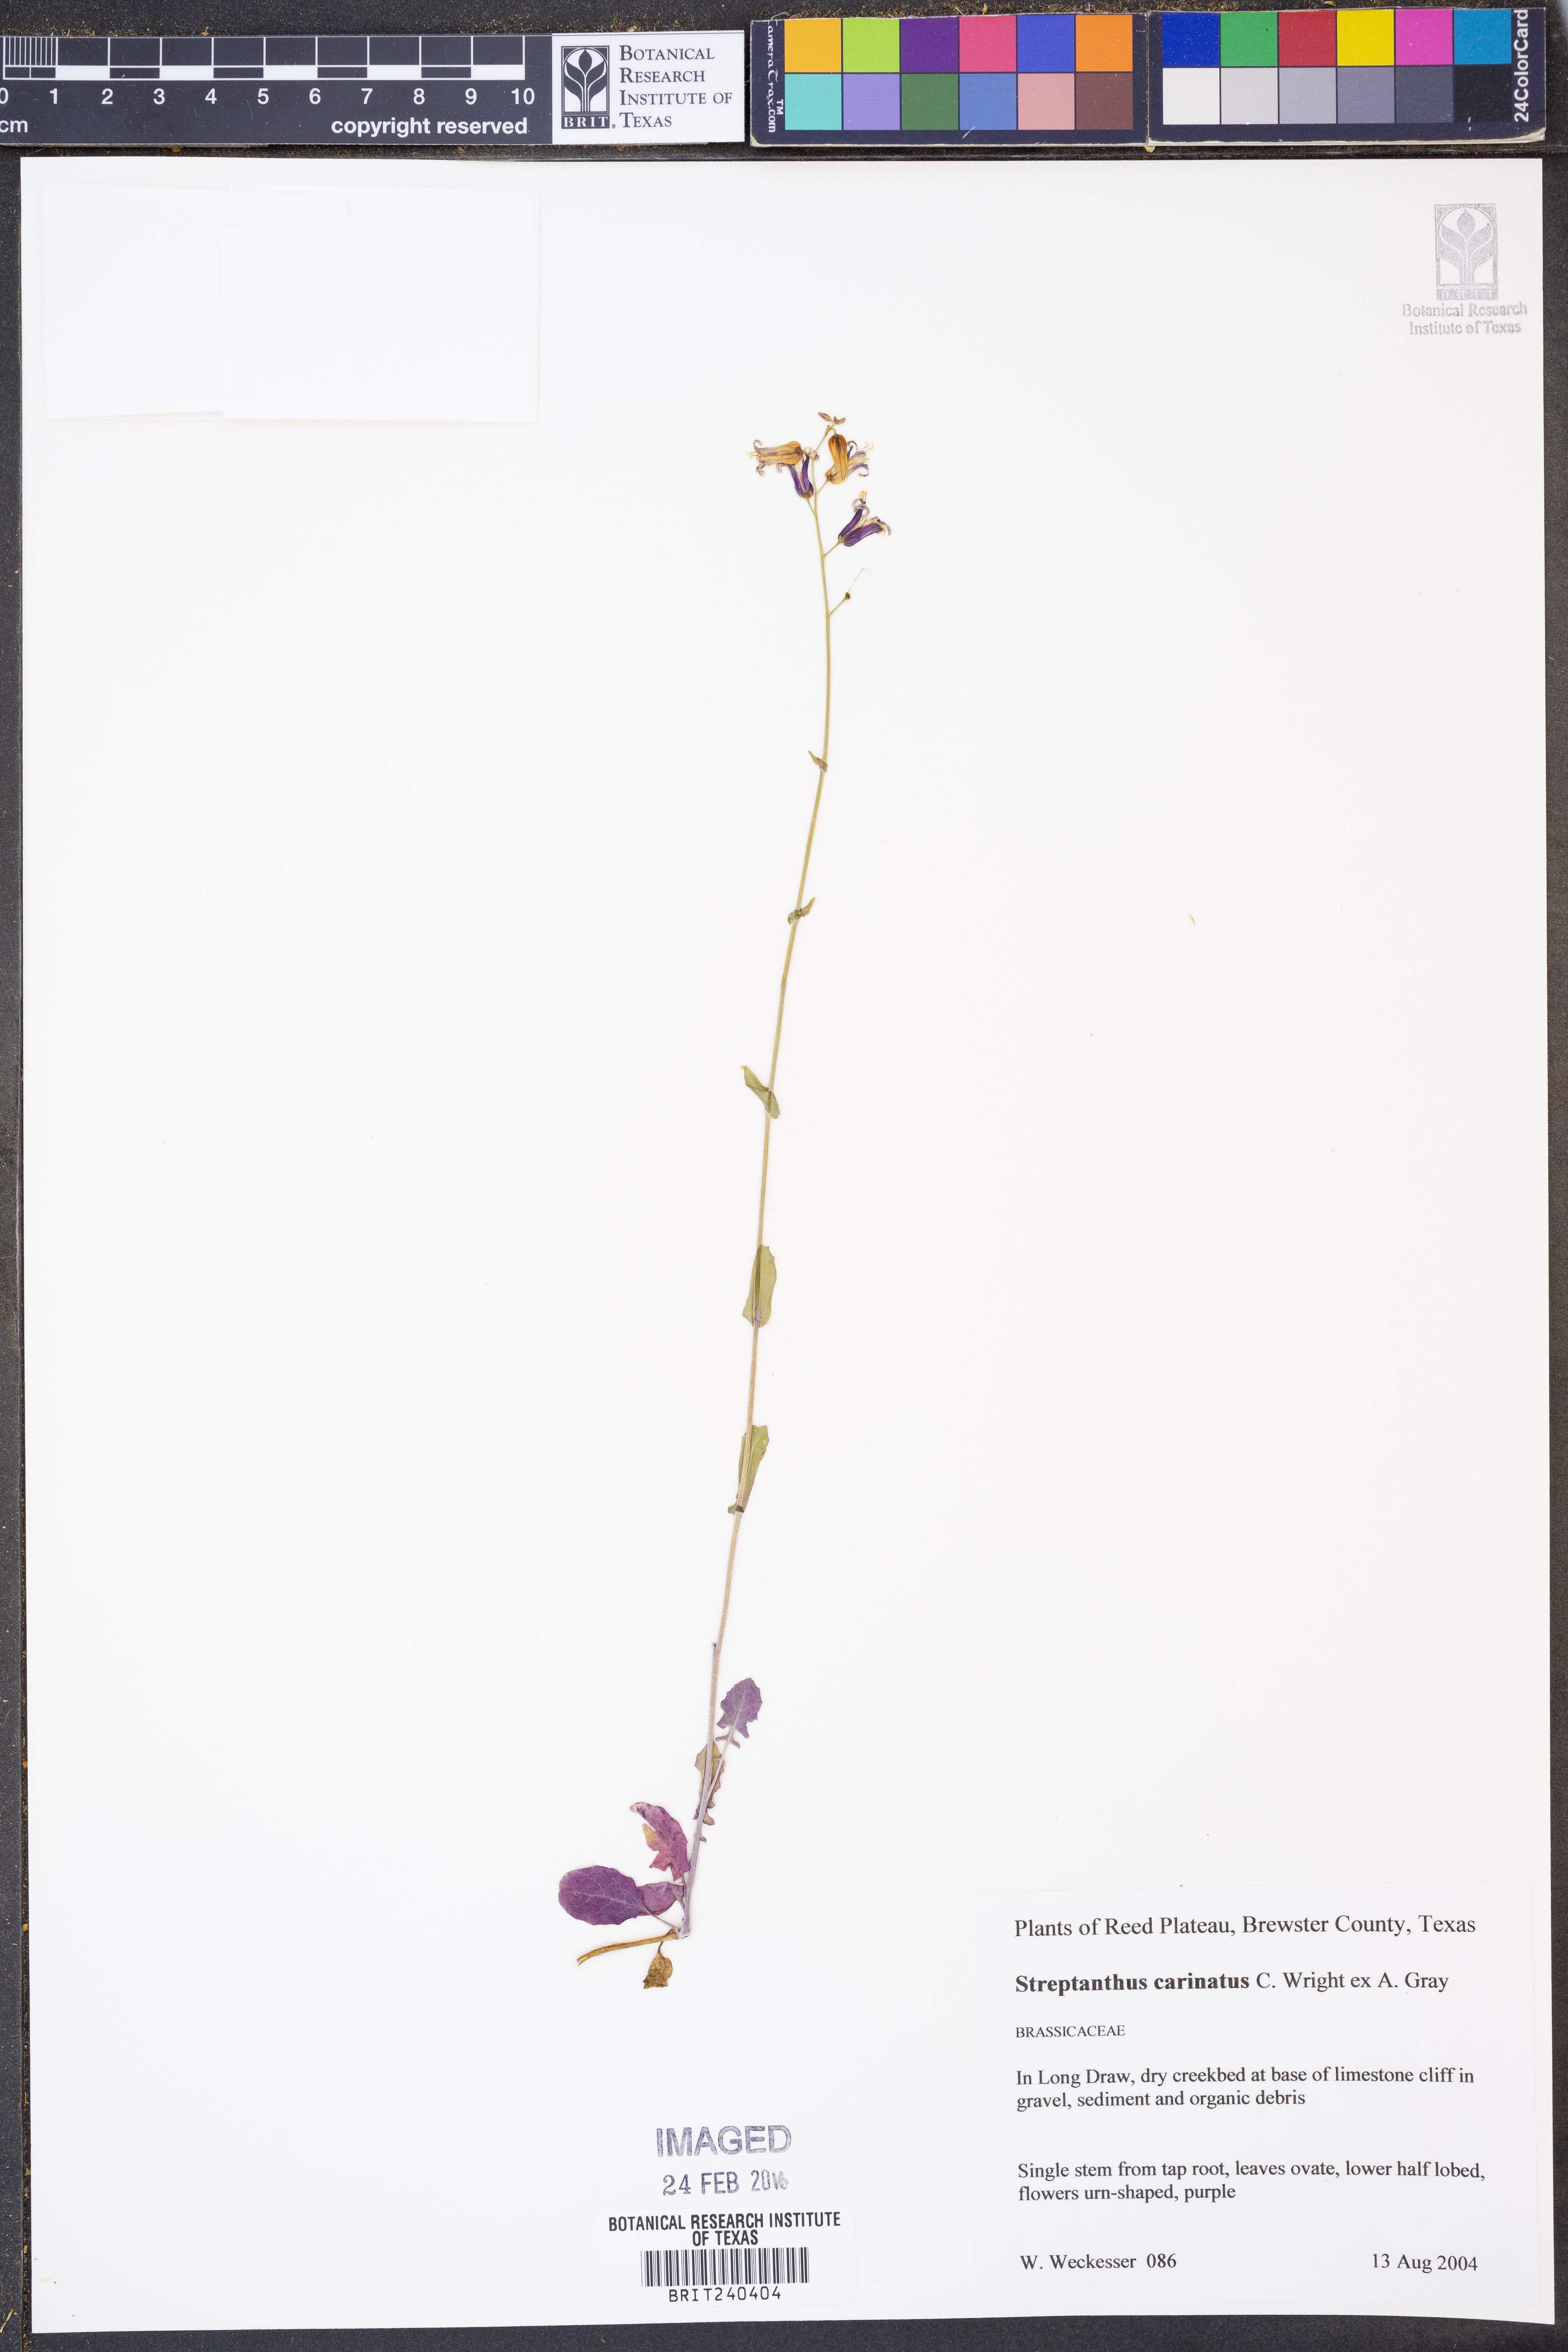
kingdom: Plantae
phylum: Tracheophyta
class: Magnoliopsida
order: Brassicales
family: Brassicaceae
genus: Streptanthus
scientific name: Streptanthus carinatus
